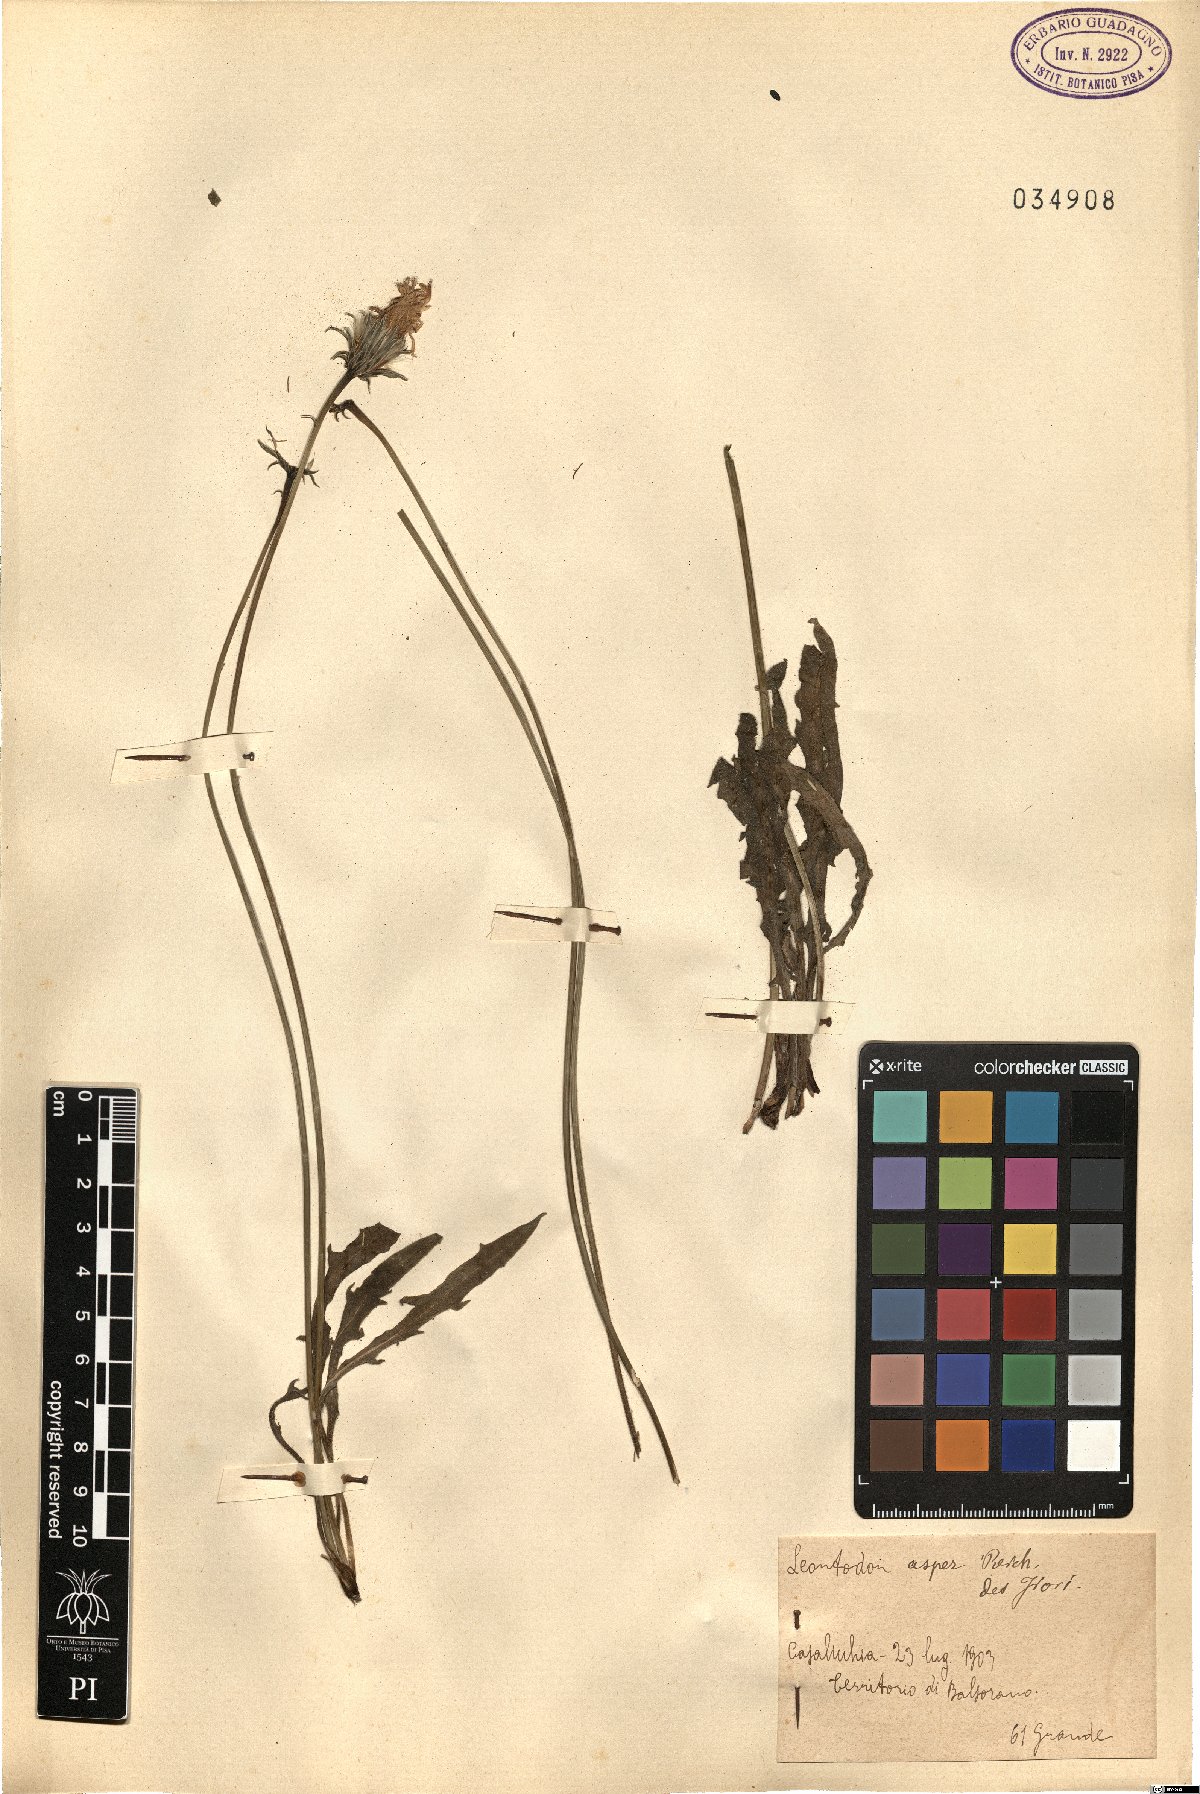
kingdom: Plantae
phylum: Tracheophyta
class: Magnoliopsida
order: Asterales
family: Asteraceae
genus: Leontodon
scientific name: Leontodon biscutellifolius
